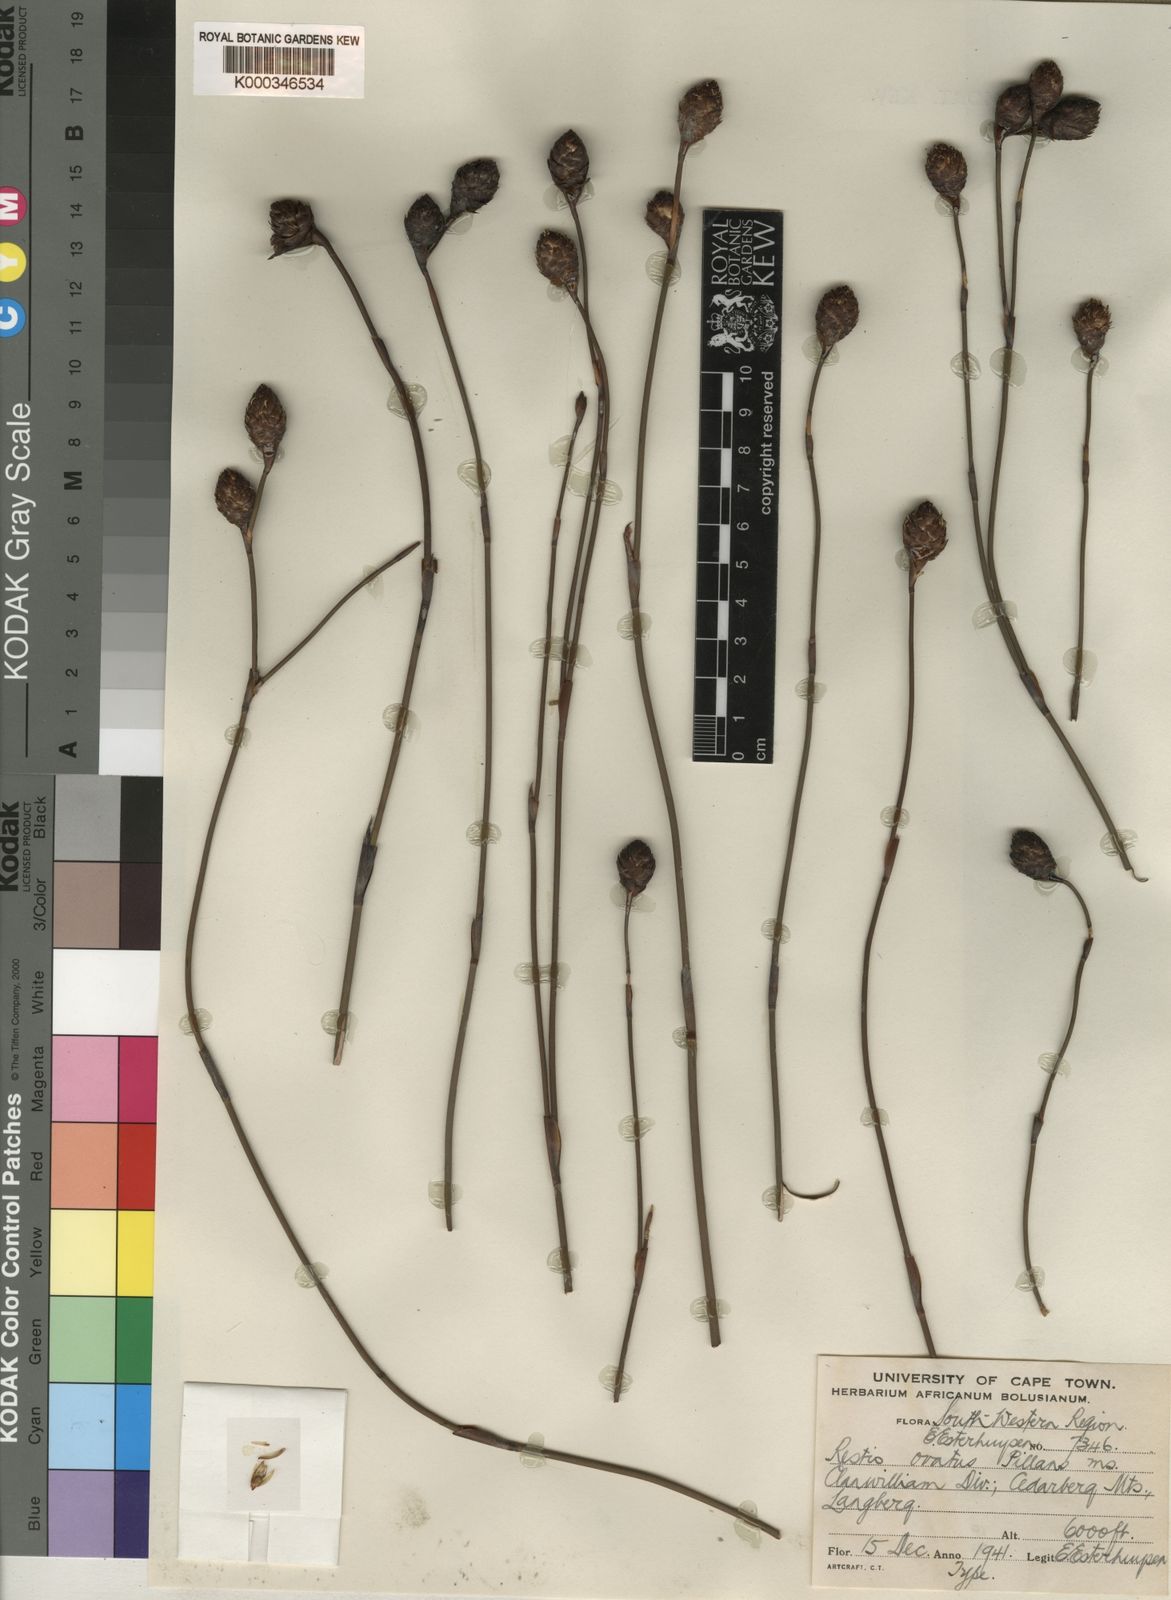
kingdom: Plantae
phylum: Tracheophyta
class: Liliopsida
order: Poales
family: Restionaceae
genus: Restio
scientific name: Restio insignis
